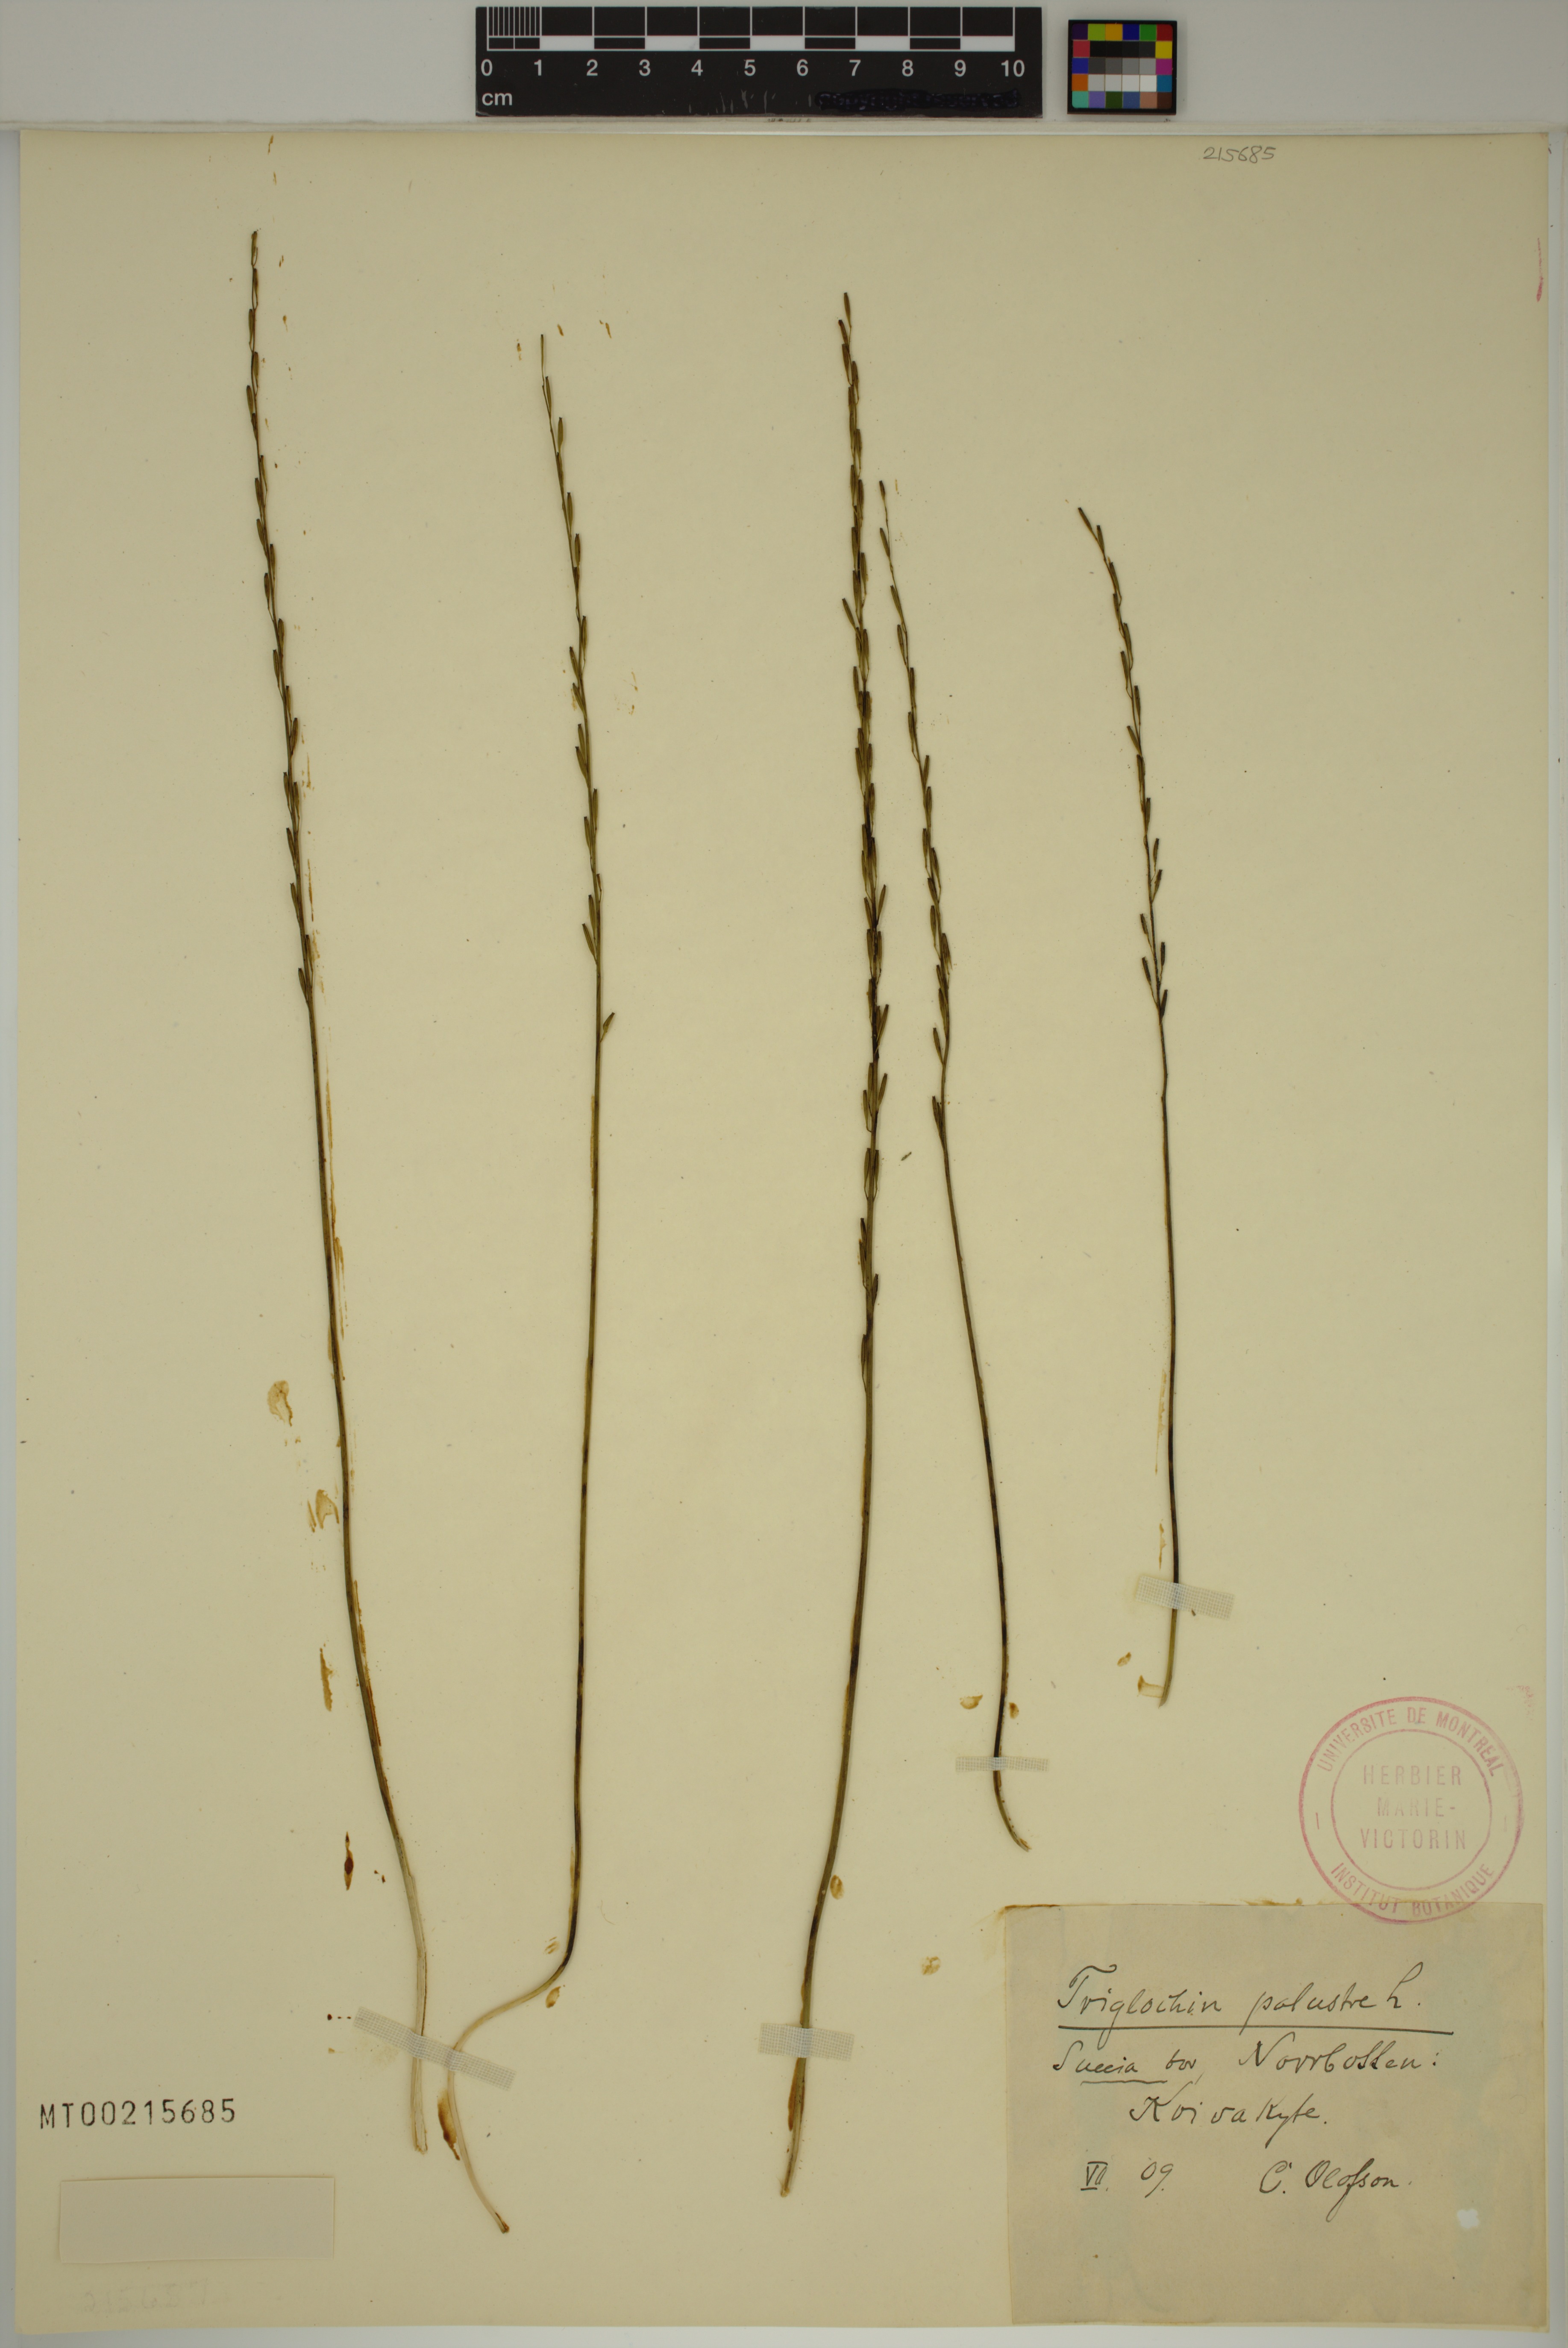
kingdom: Plantae
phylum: Tracheophyta
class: Liliopsida
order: Alismatales
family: Juncaginaceae
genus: Triglochin
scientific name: Triglochin palustris
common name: Marsh arrowgrass
